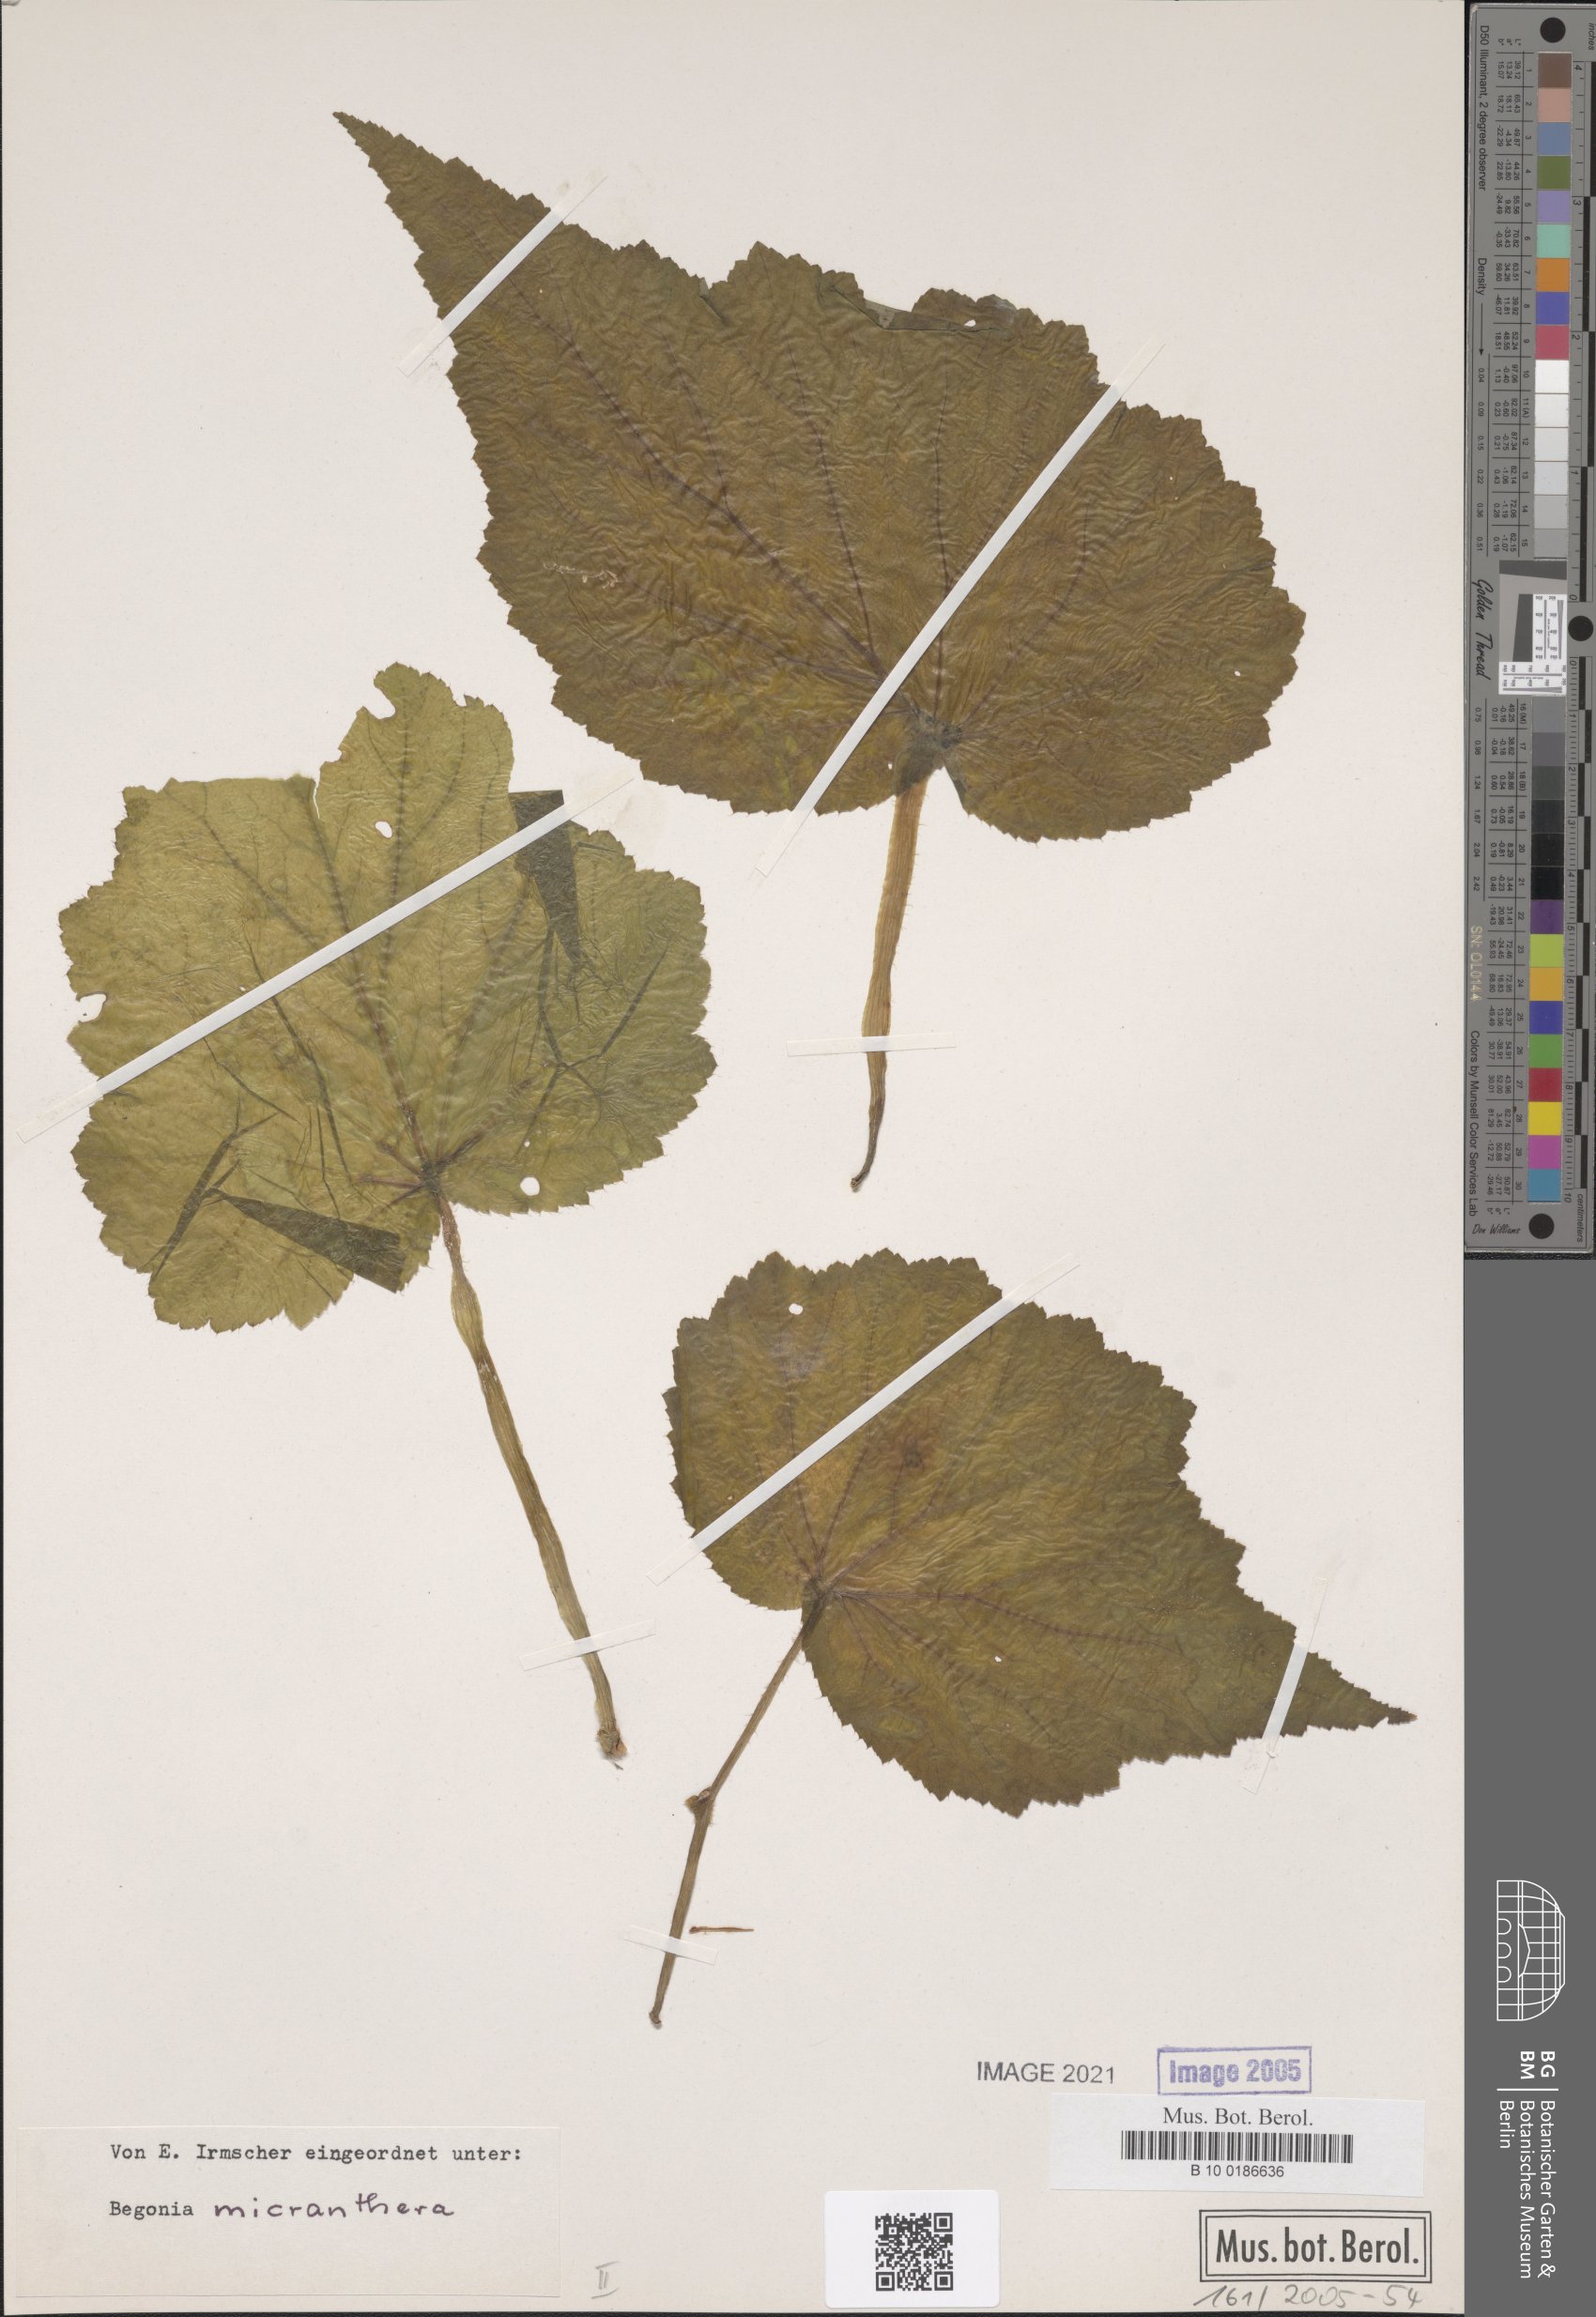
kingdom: Plantae
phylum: Tracheophyta
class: Magnoliopsida
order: Cucurbitales
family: Begoniaceae
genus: Begonia
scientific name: Begonia micranthera
